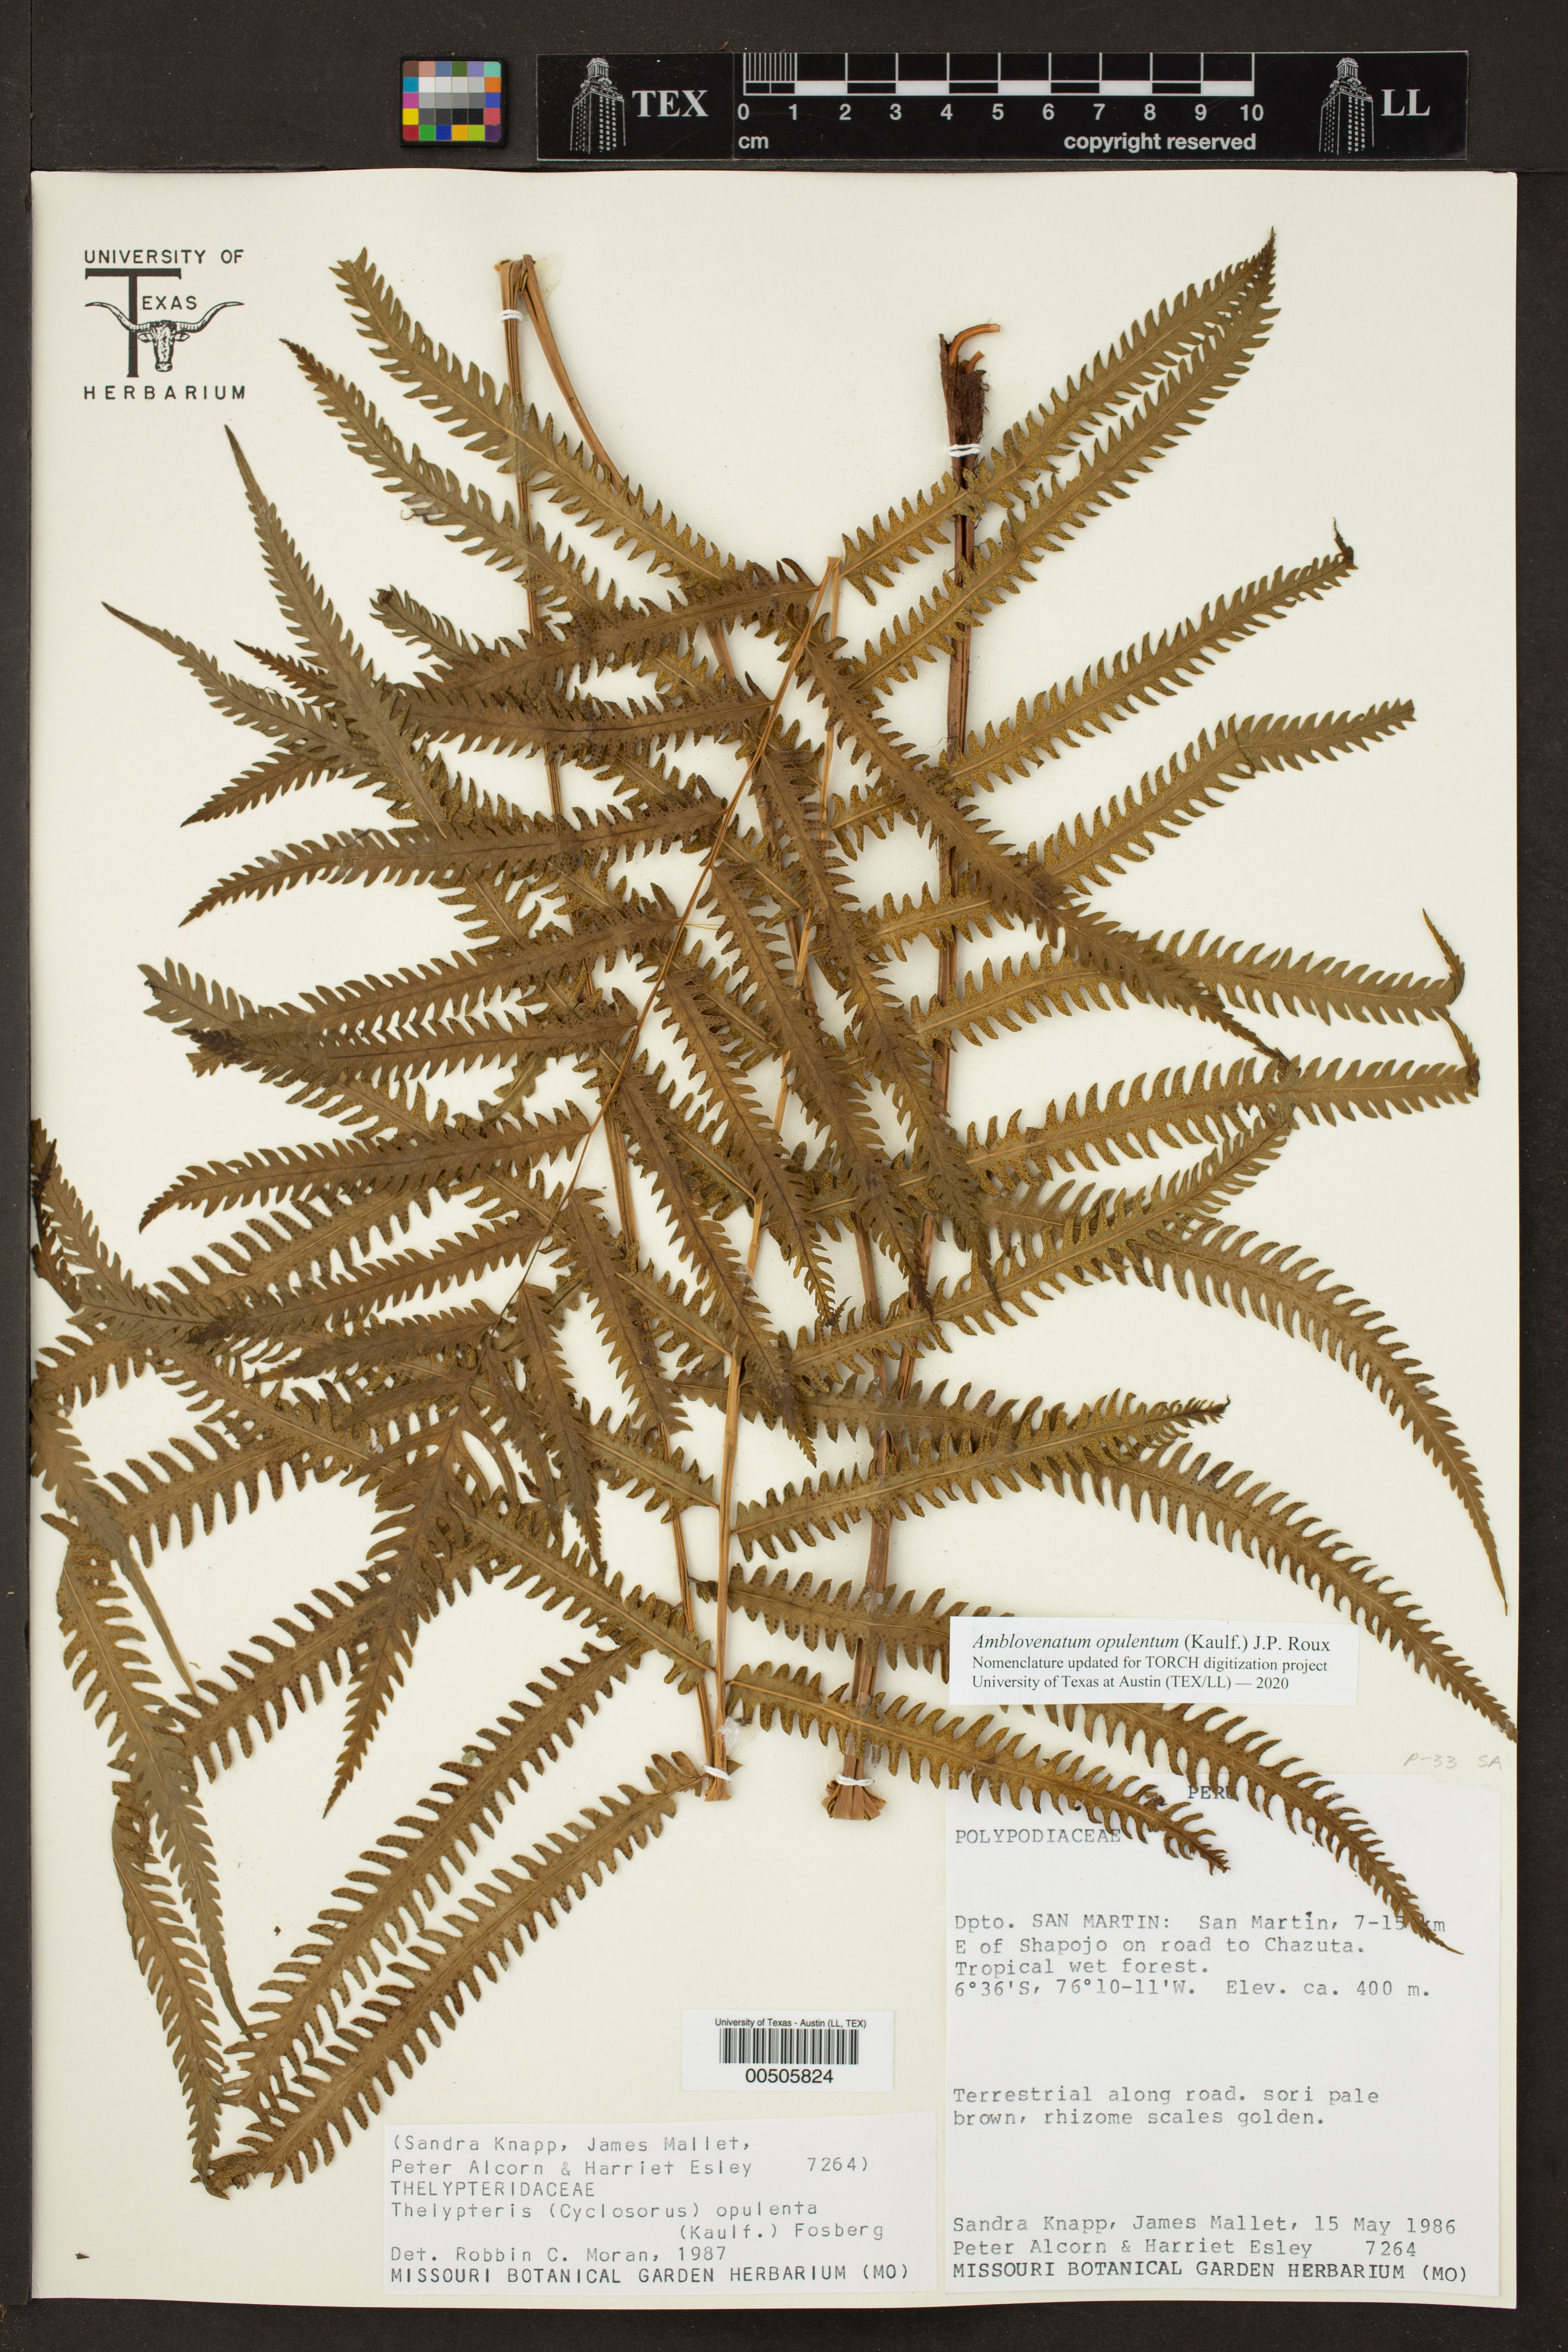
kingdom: Plantae
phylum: Tracheophyta
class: Polypodiopsida
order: Polypodiales
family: Thelypteridaceae
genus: Amblovenatum
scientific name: Amblovenatum opulentum
